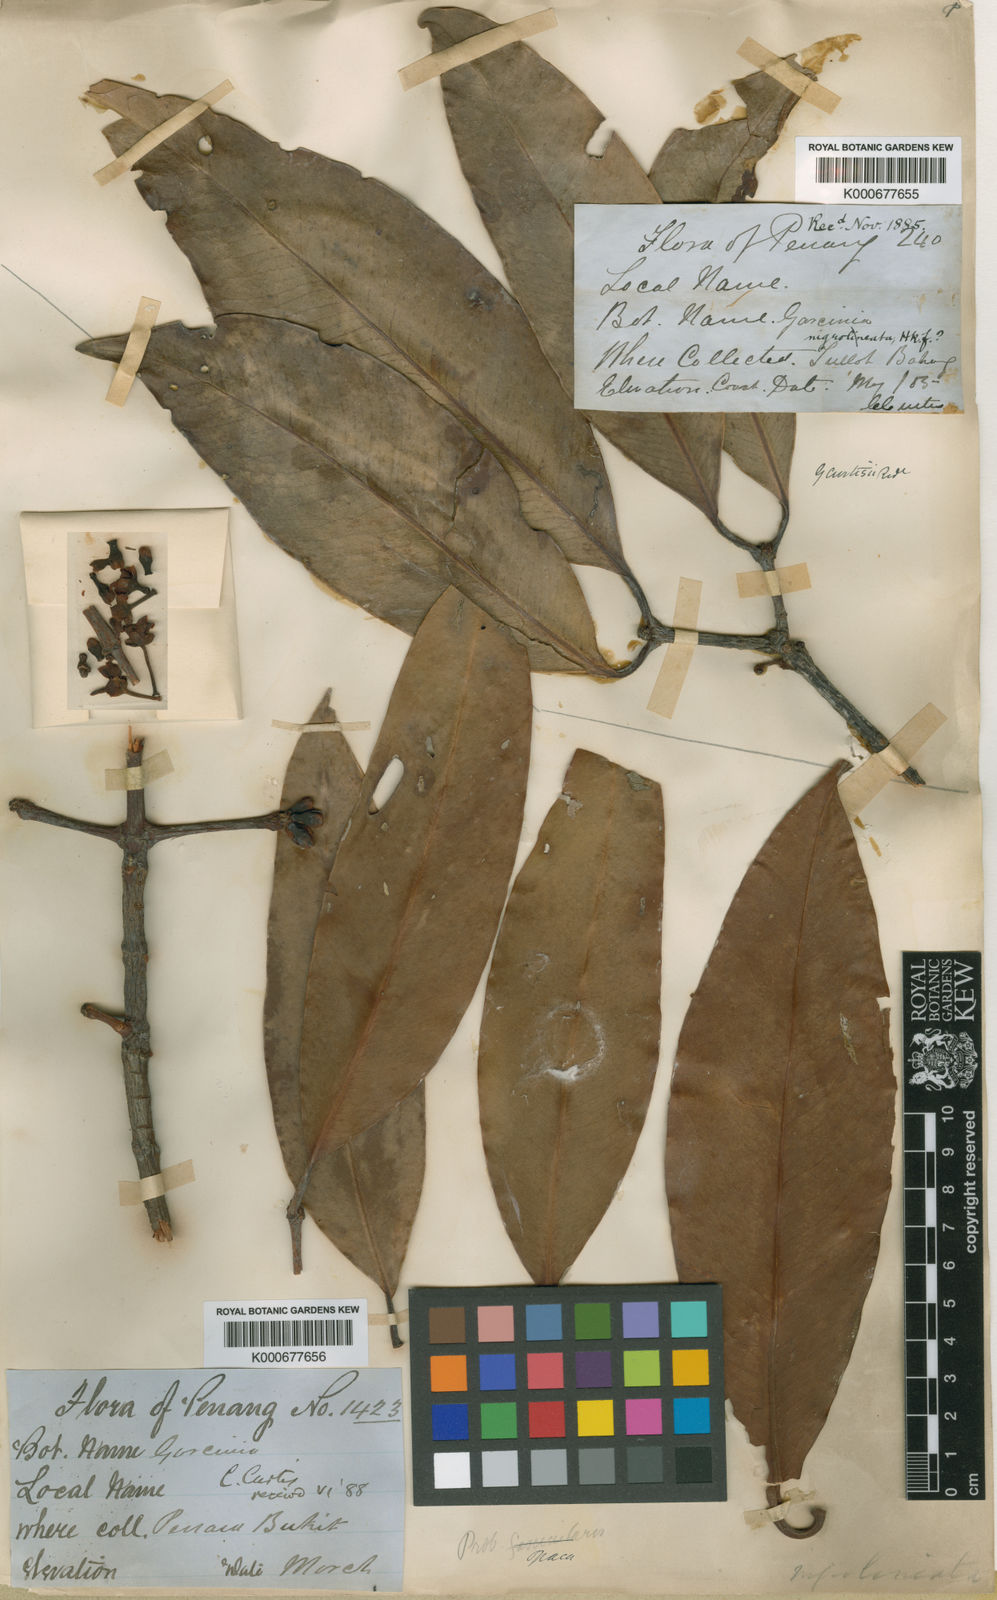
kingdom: Plantae
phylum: Tracheophyta
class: Magnoliopsida
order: Malpighiales
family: Clusiaceae
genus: Garcinia
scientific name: Garcinia bancana
